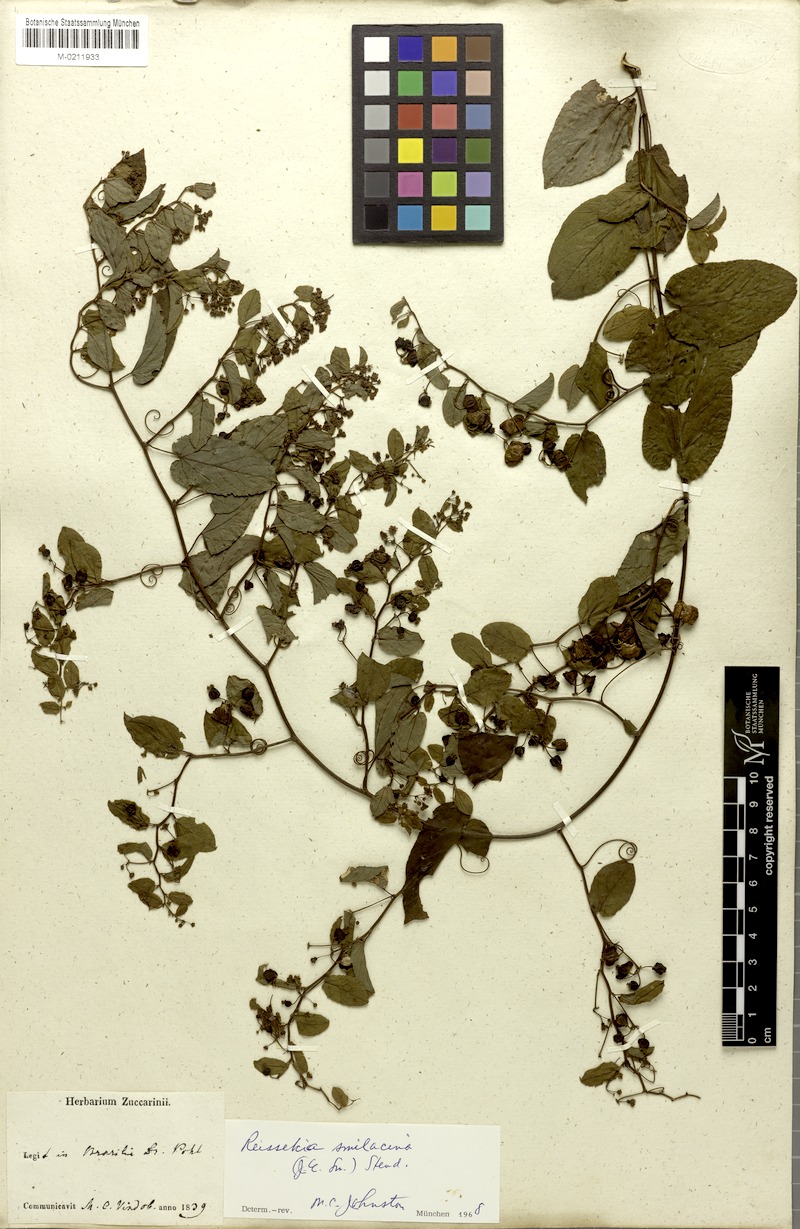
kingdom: Plantae
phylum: Tracheophyta
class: Magnoliopsida
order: Rosales
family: Rhamnaceae
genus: Reissekia
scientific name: Reissekia smilacina
